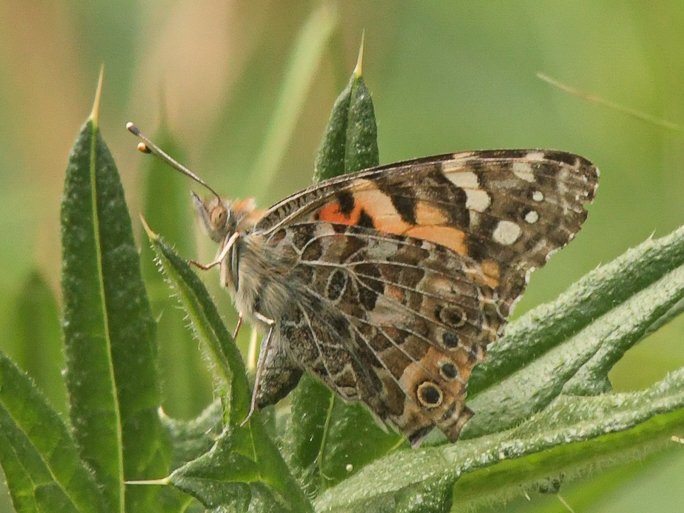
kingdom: Animalia
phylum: Arthropoda
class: Insecta
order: Lepidoptera
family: Nymphalidae
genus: Vanessa
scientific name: Vanessa cardui
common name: Painted Lady
